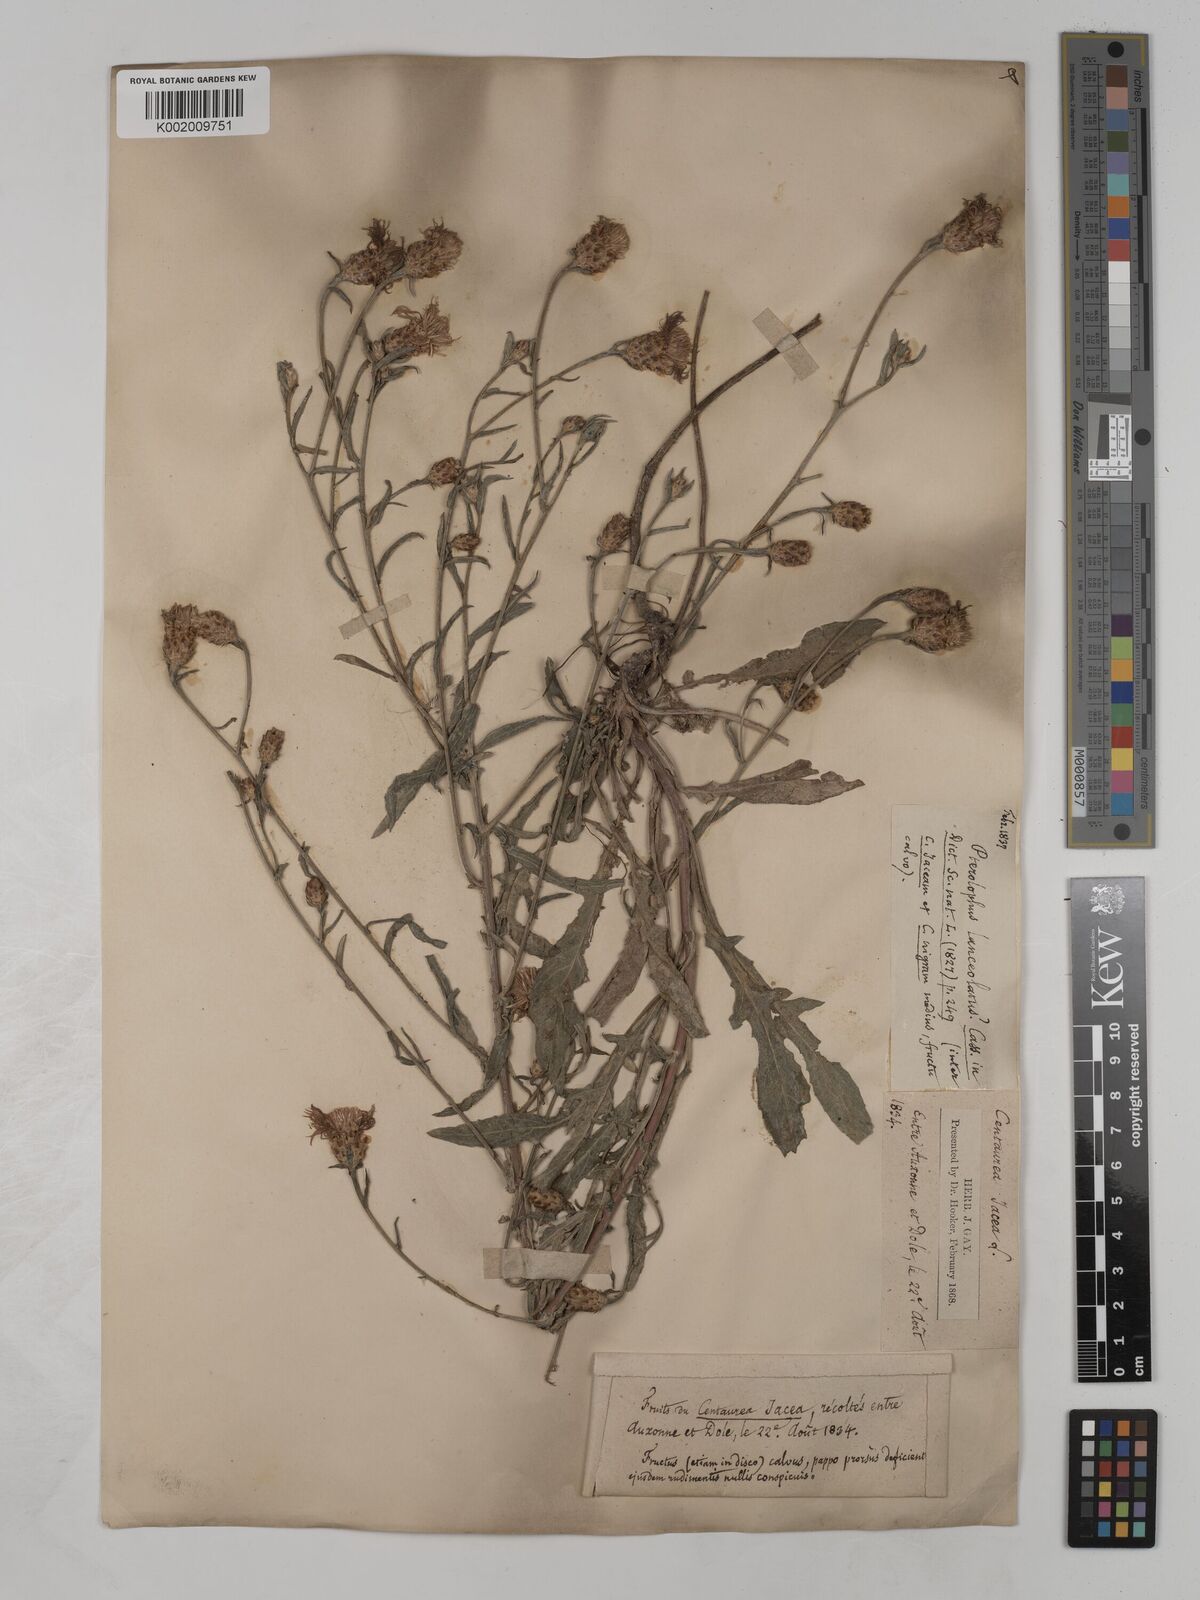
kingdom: Plantae
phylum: Tracheophyta
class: Magnoliopsida
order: Asterales
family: Asteraceae
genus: Centaurea
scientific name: Centaurea timbalii
